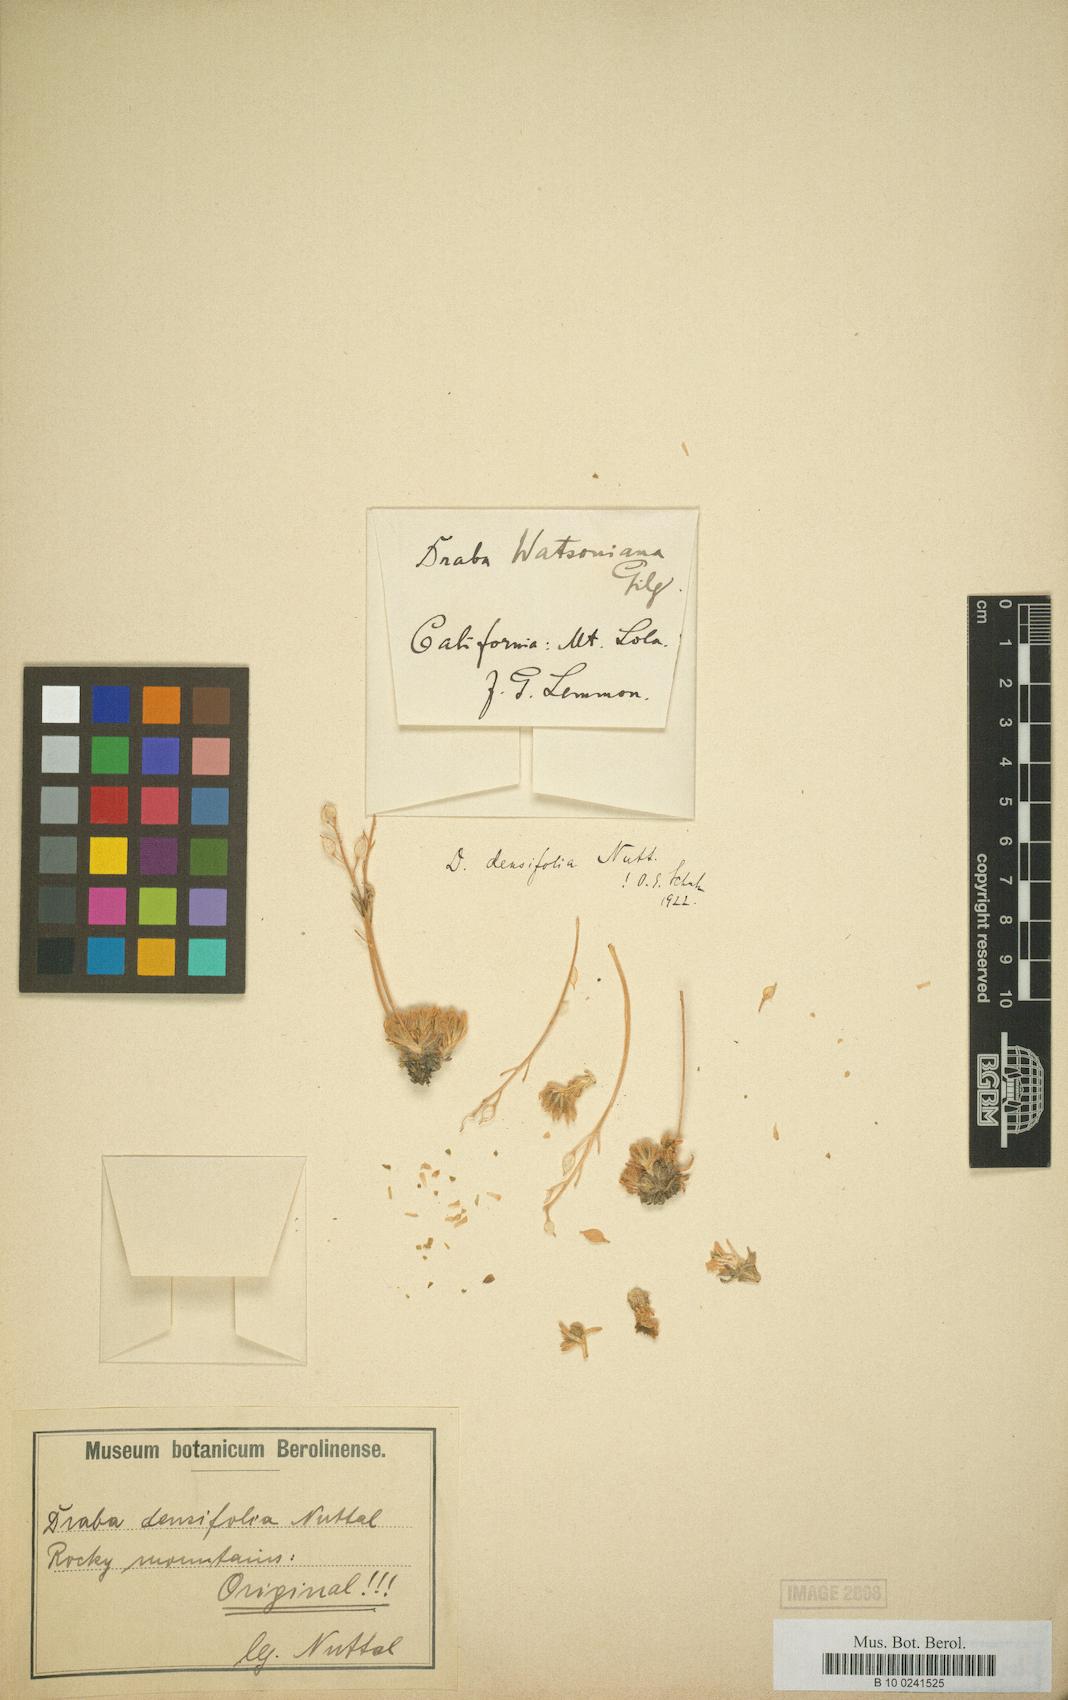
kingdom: Plantae
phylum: Tracheophyta
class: Magnoliopsida
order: Brassicales
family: Brassicaceae
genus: Draba
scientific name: Draba densifolia
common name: Nuttall's draba
